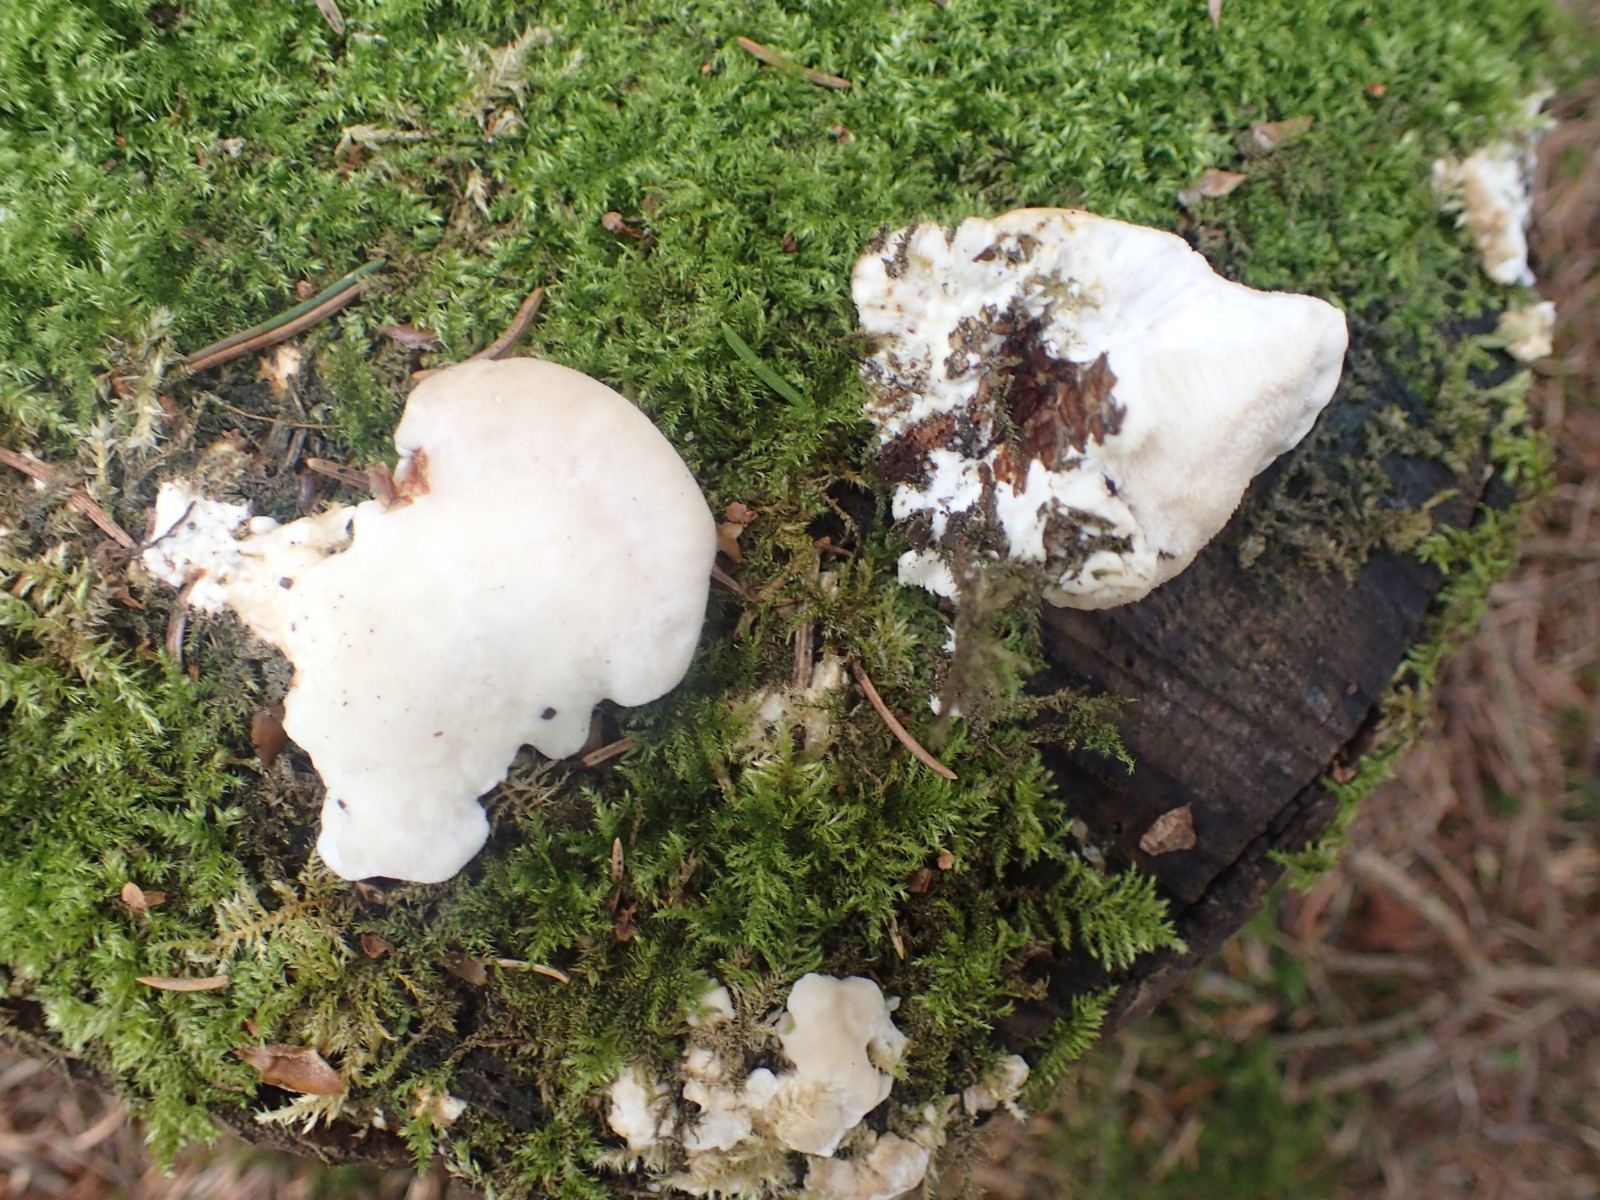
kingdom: Fungi
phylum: Basidiomycota
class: Agaricomycetes
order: Polyporales
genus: Amaropostia
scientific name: Amaropostia stiptica
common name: bitter kødporesvamp
